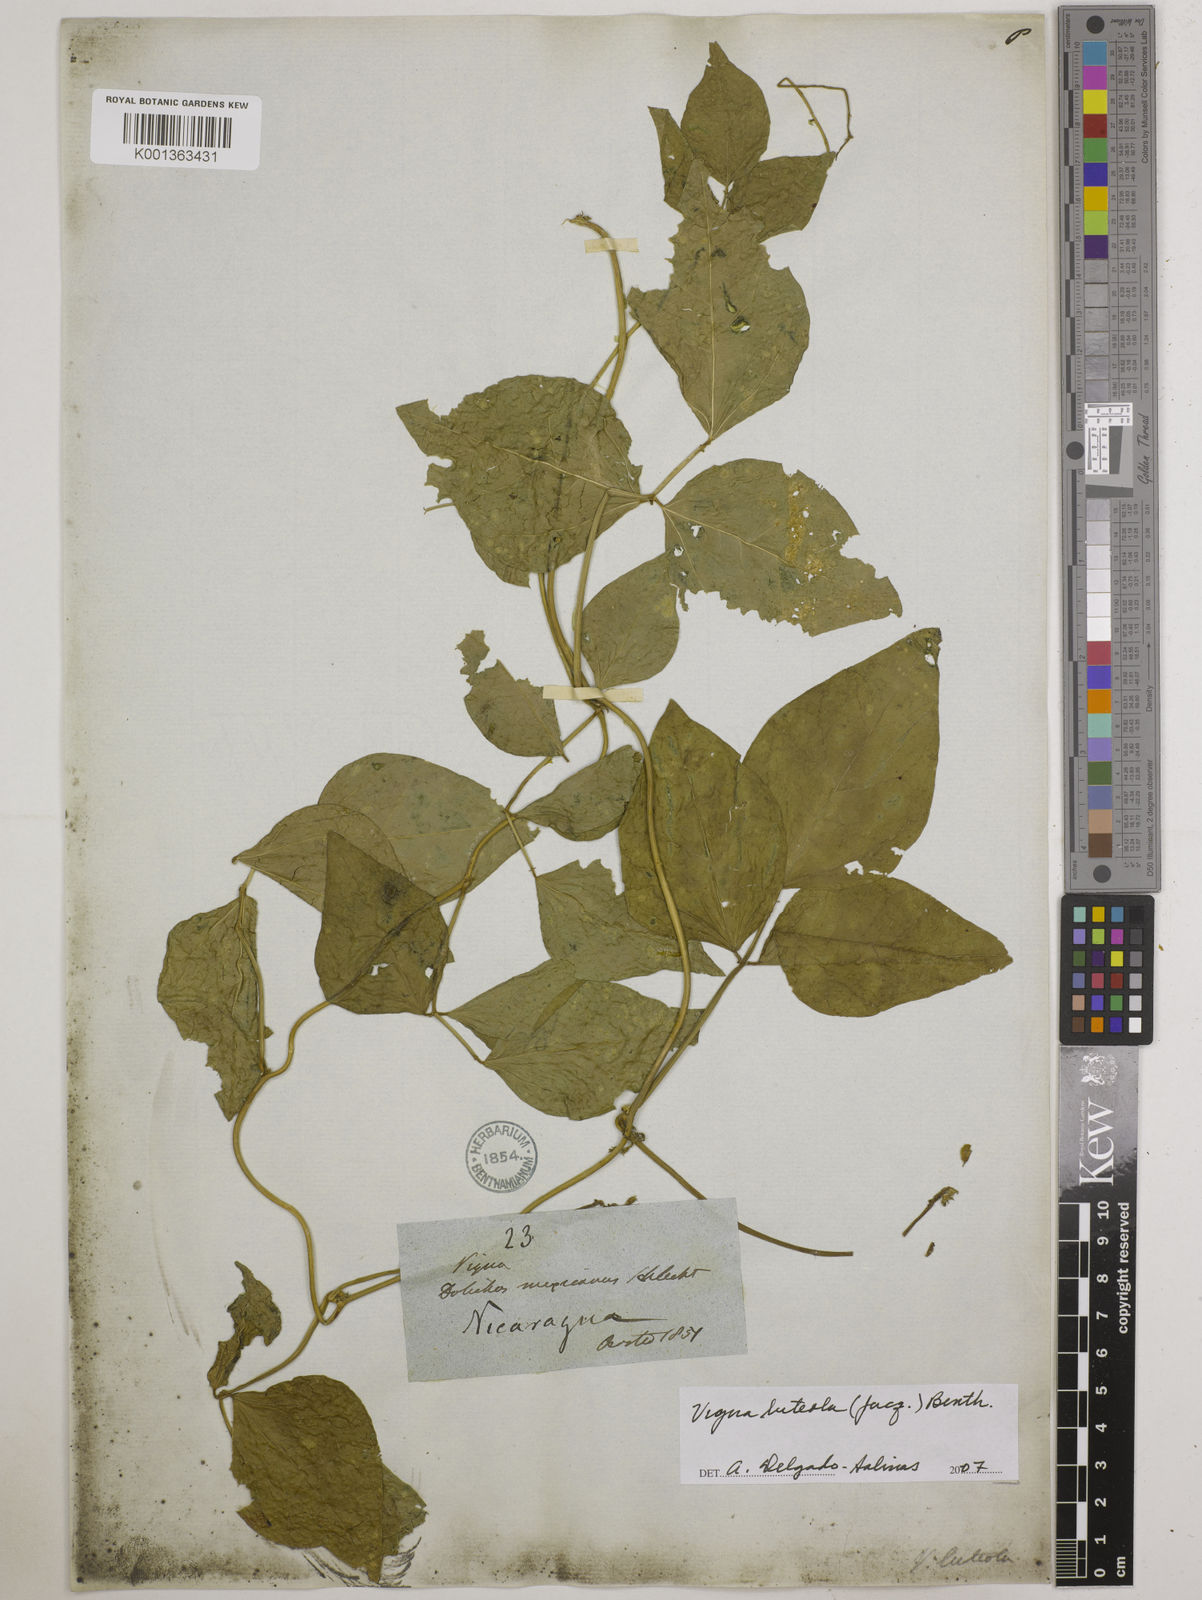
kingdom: Plantae
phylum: Tracheophyta
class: Magnoliopsida
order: Fabales
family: Fabaceae
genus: Vigna
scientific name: Vigna luteola
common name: Hairypod cowpea
